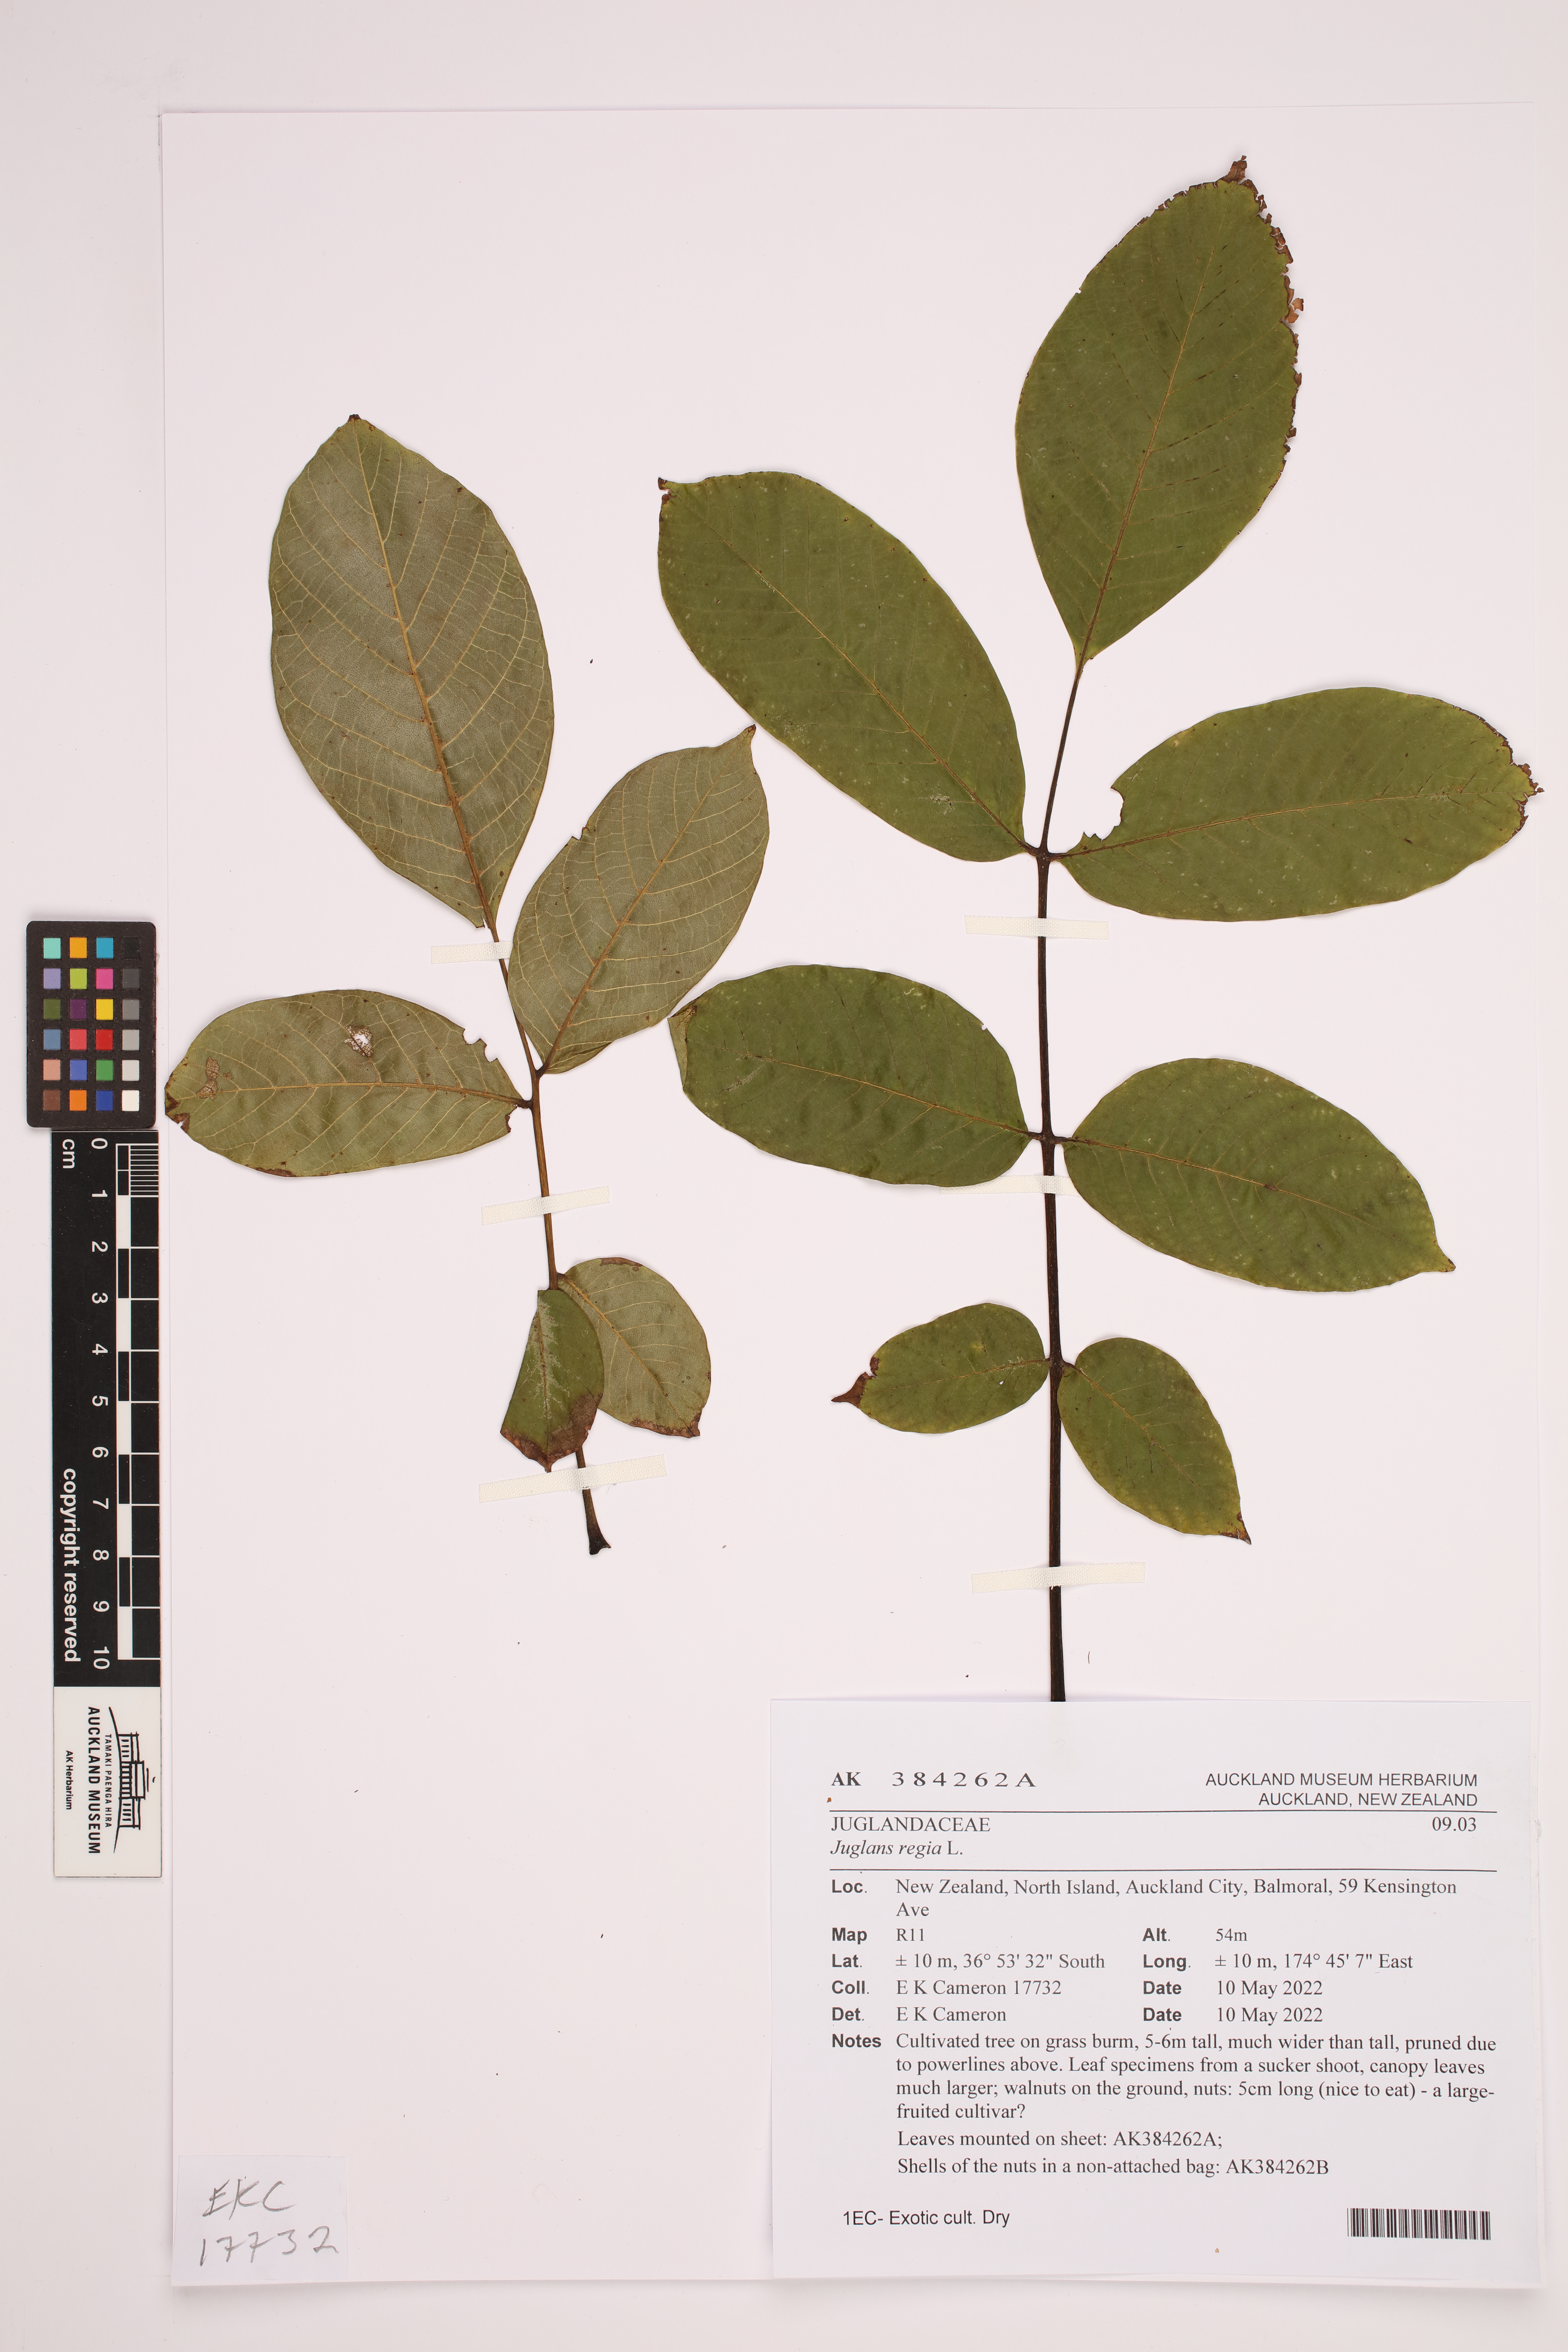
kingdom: Plantae
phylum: Tracheophyta
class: Magnoliopsida
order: Fagales
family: Juglandaceae
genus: Juglans
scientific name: Juglans regia
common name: Walnut
